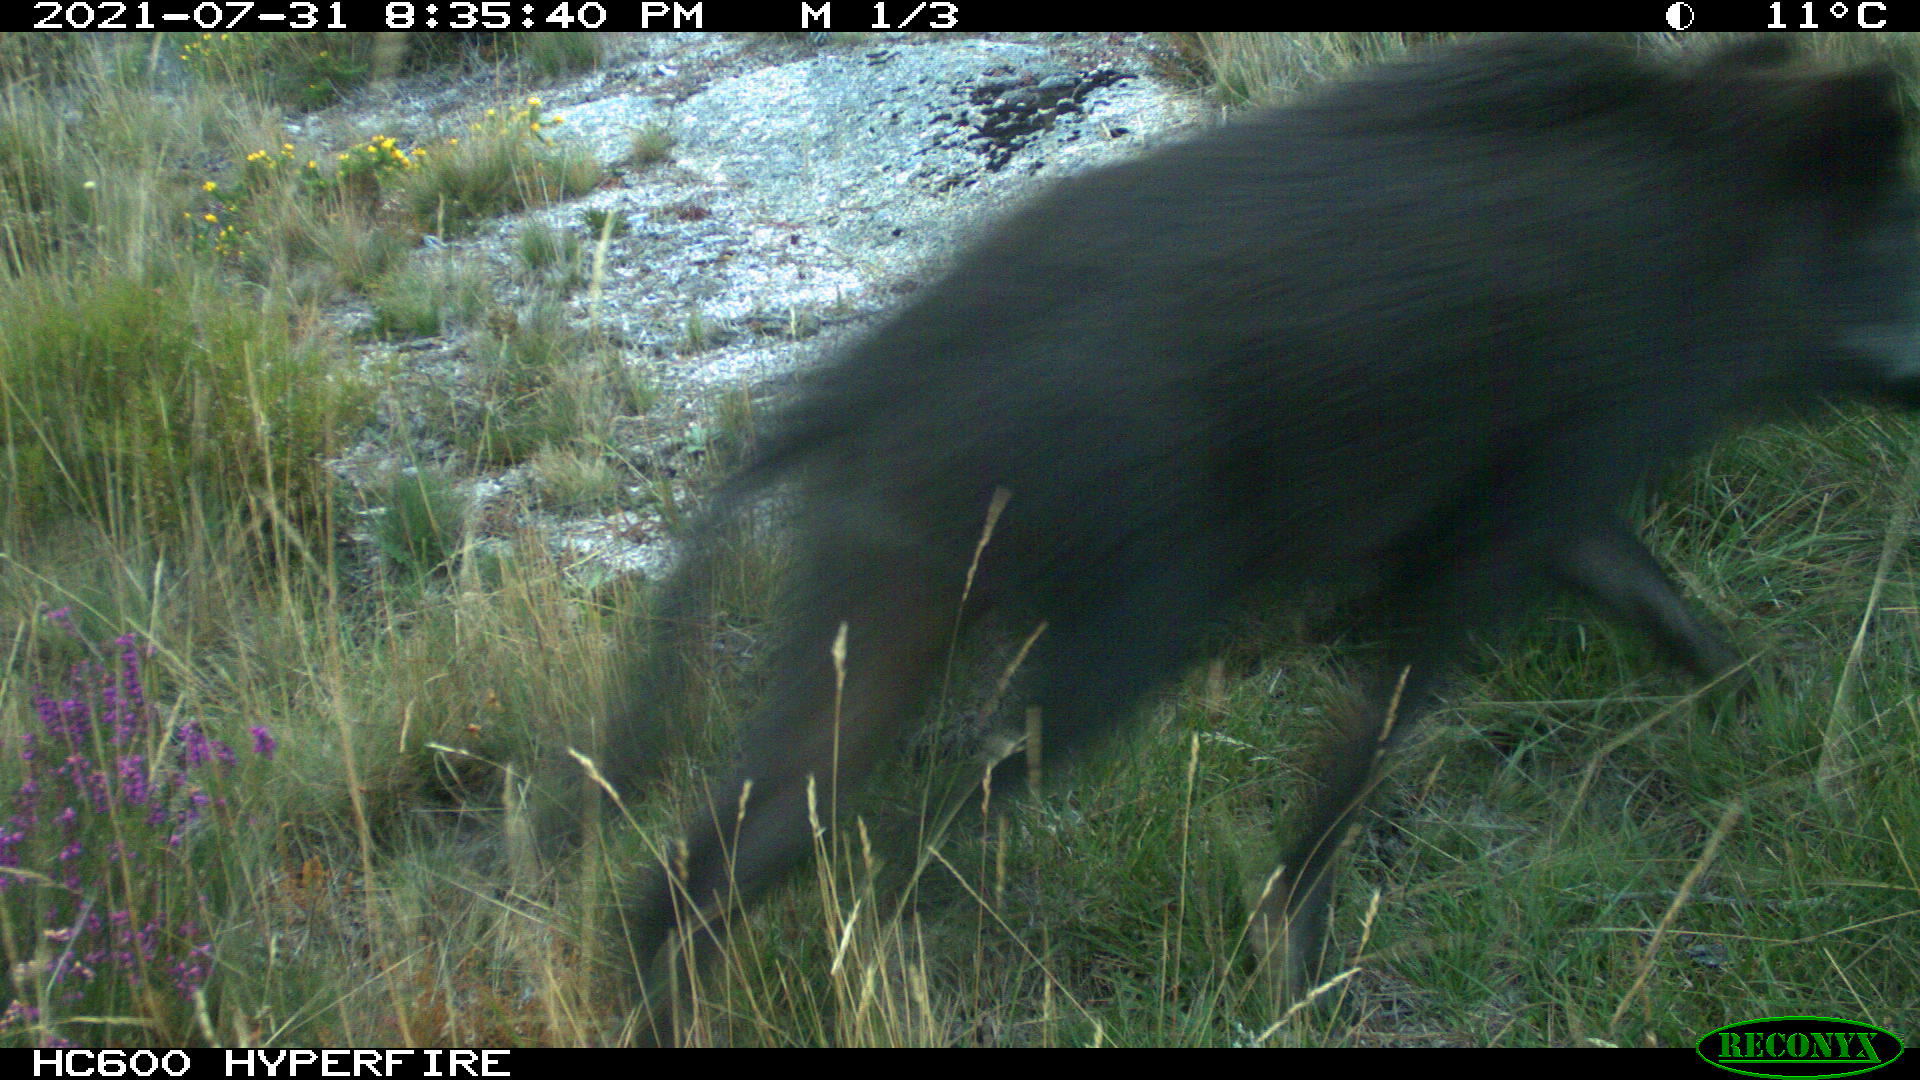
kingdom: Animalia
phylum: Chordata
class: Mammalia
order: Artiodactyla
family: Suidae
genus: Sus
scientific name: Sus scrofa
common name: Wild boar
